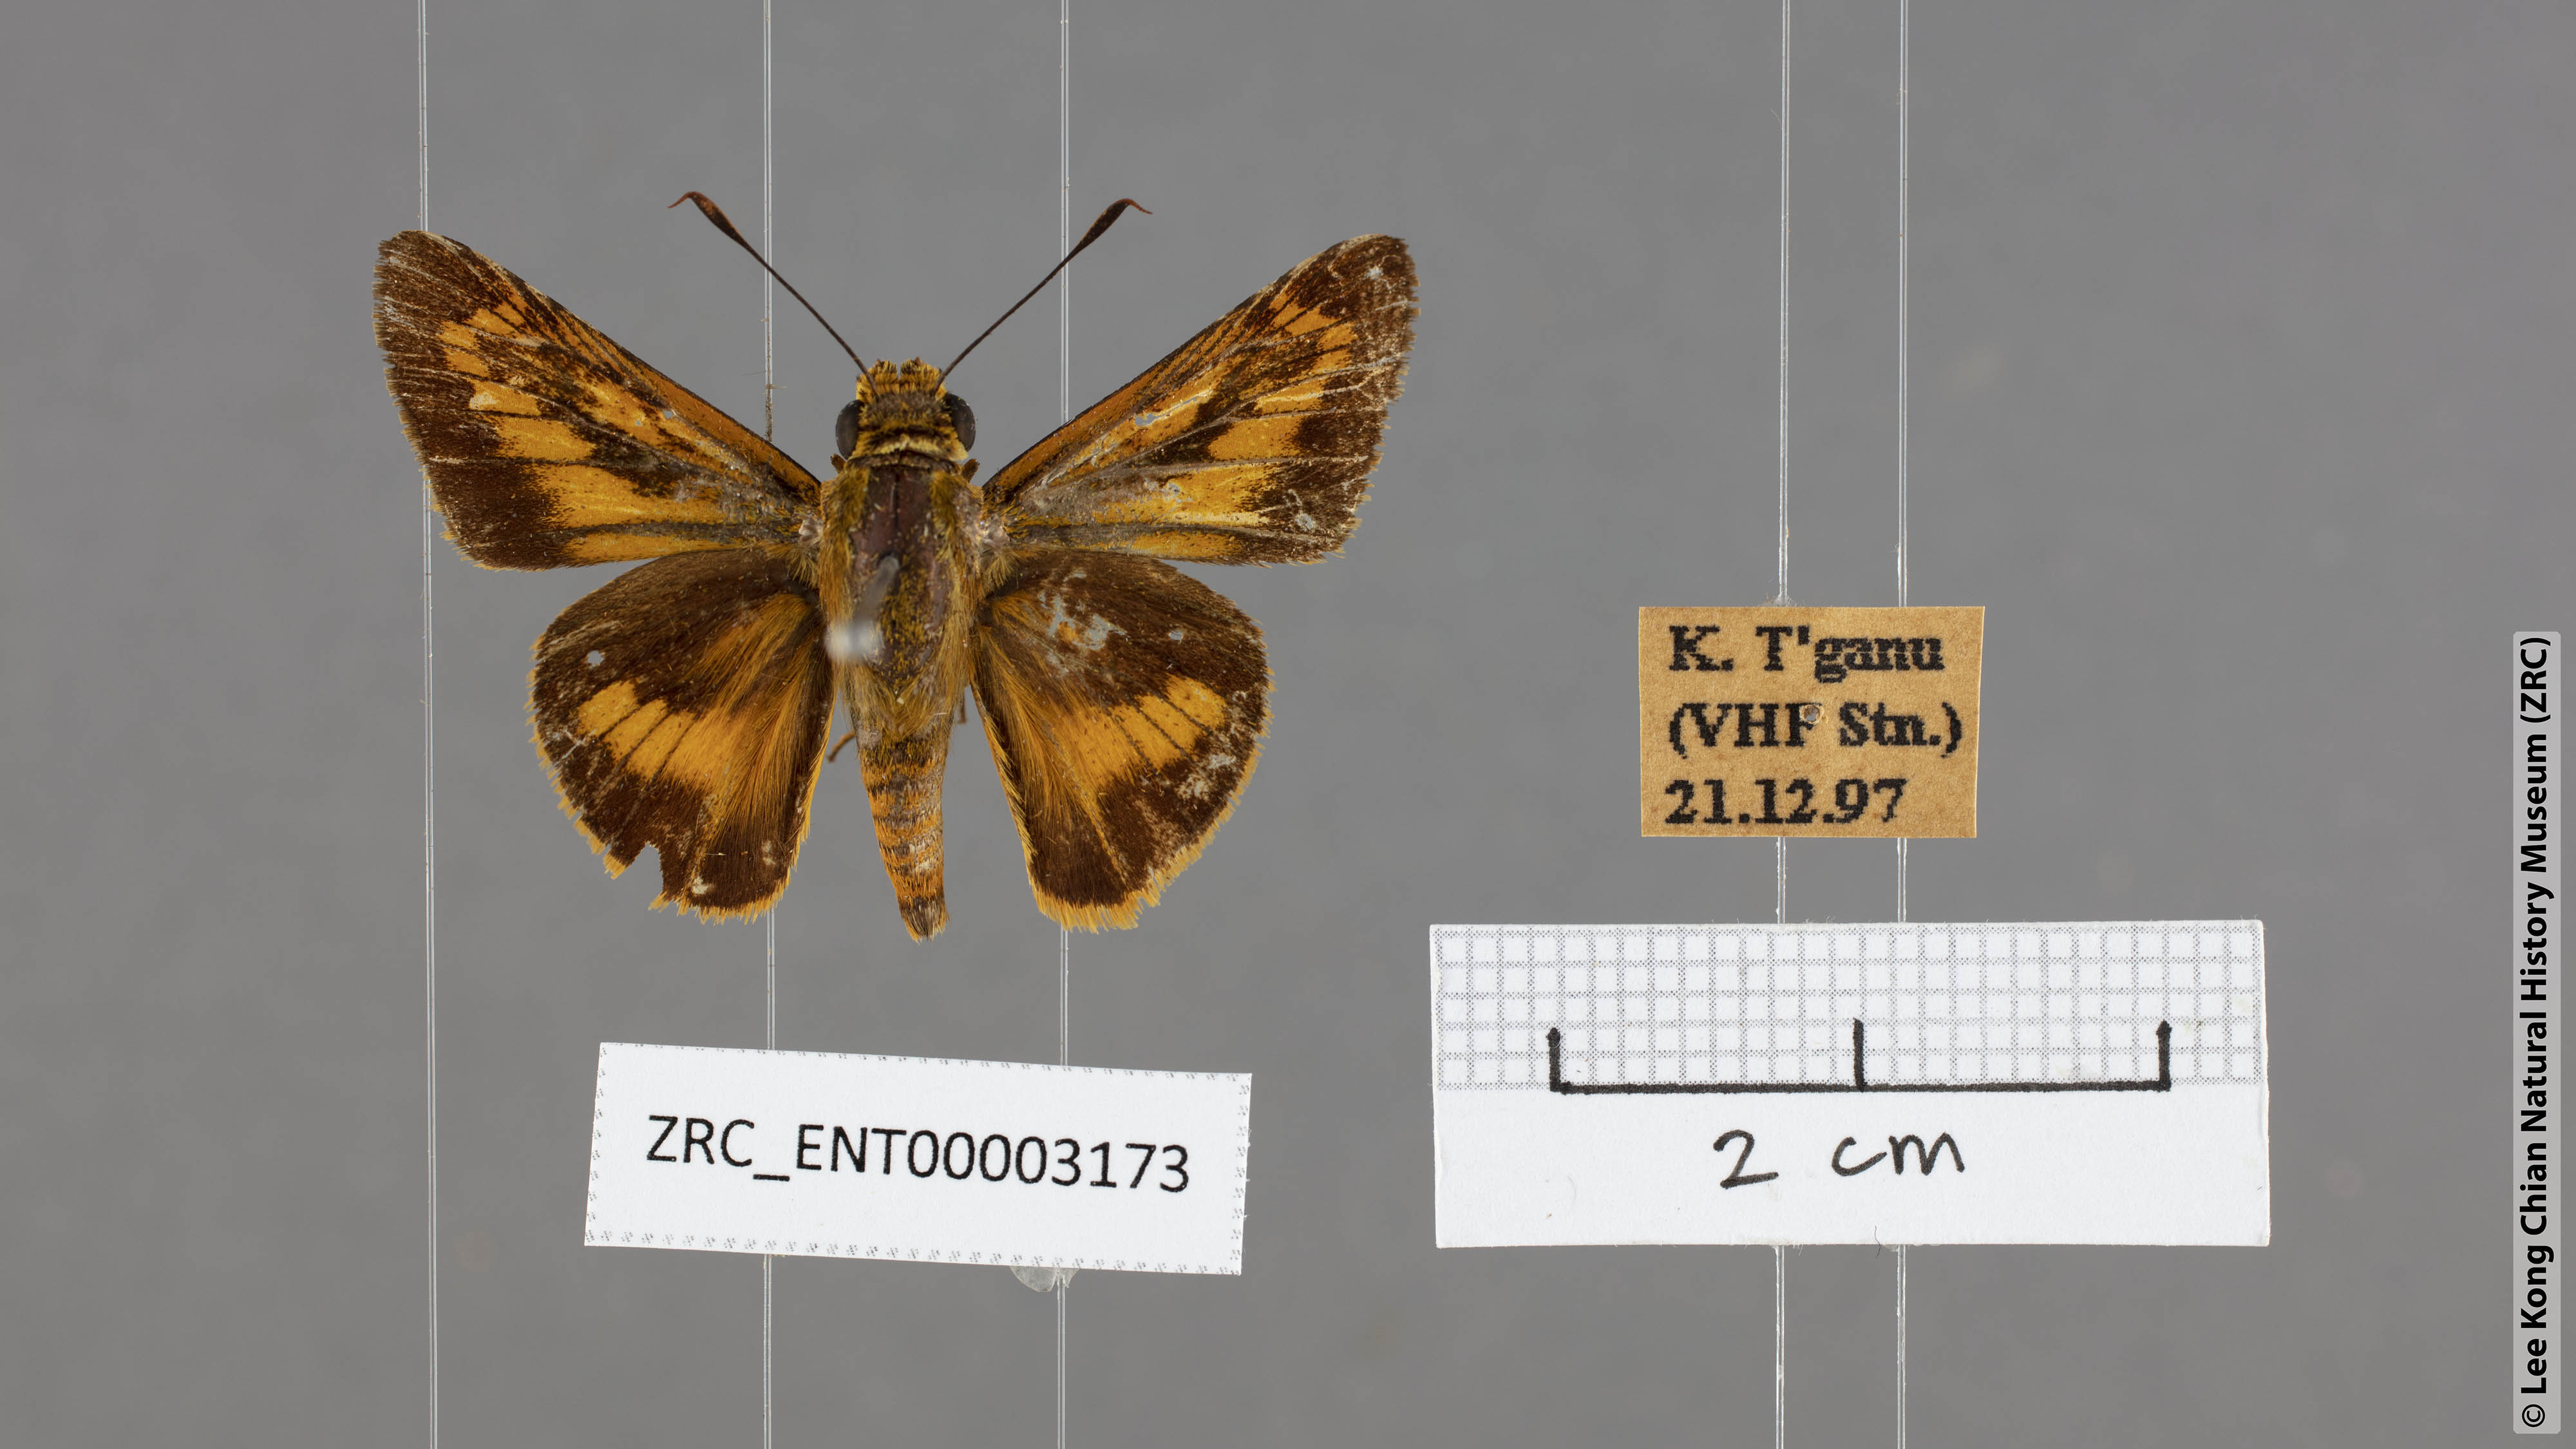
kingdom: Animalia
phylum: Arthropoda
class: Insecta
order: Lepidoptera
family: Hesperiidae
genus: Cephrenes
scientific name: Cephrenes
